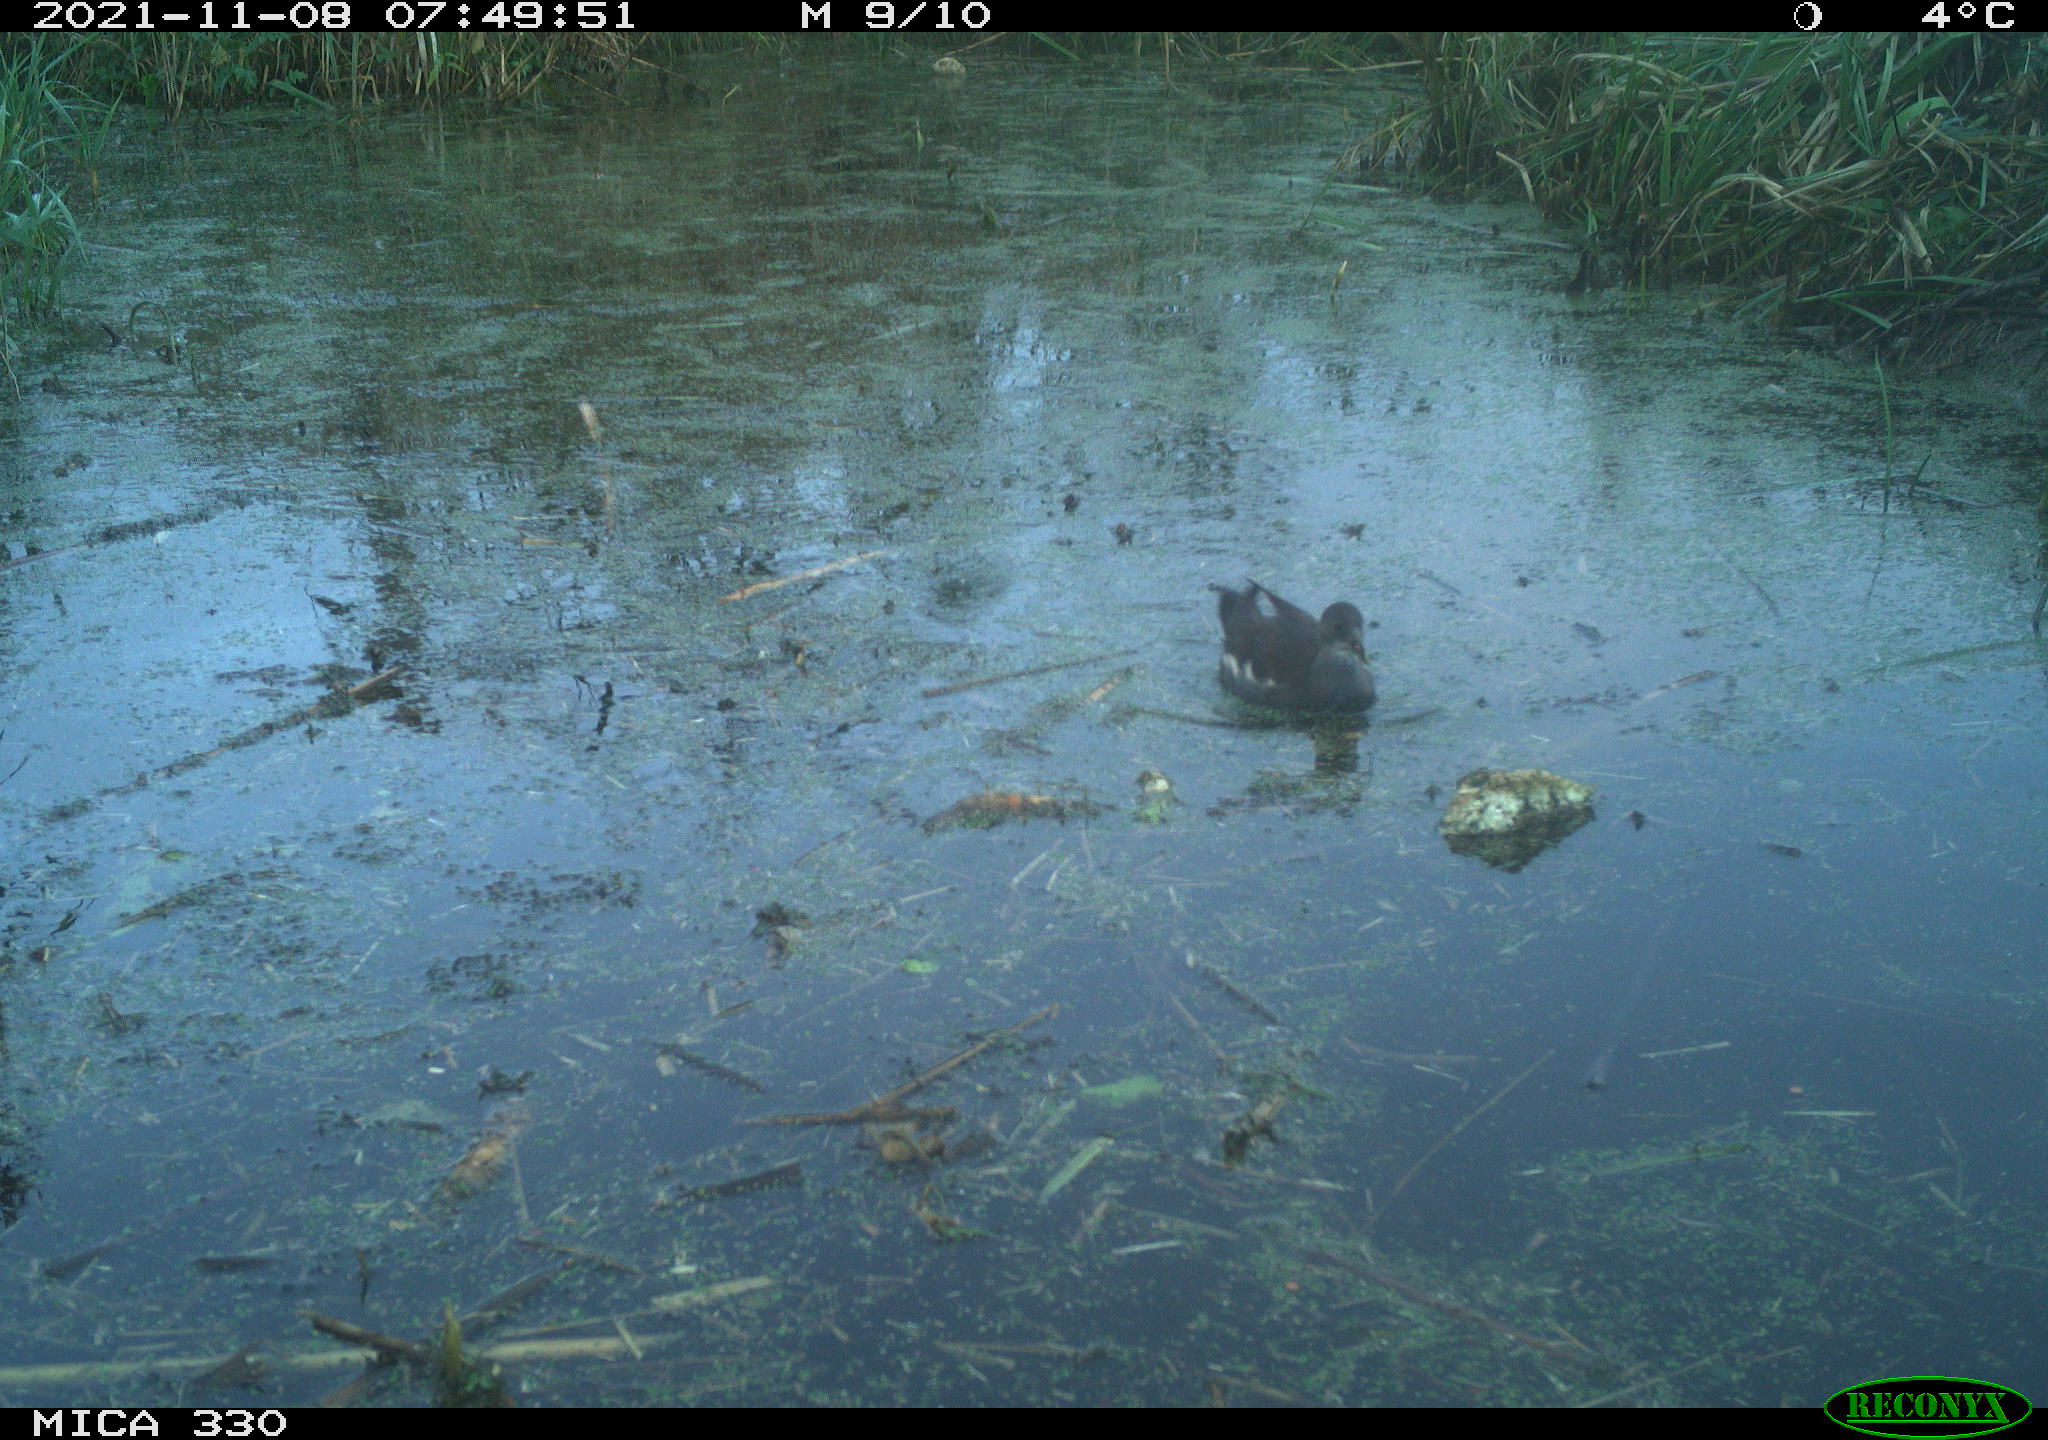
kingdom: Animalia
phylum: Chordata
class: Aves
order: Gruiformes
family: Rallidae
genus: Gallinula
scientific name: Gallinula chloropus
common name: Common moorhen
